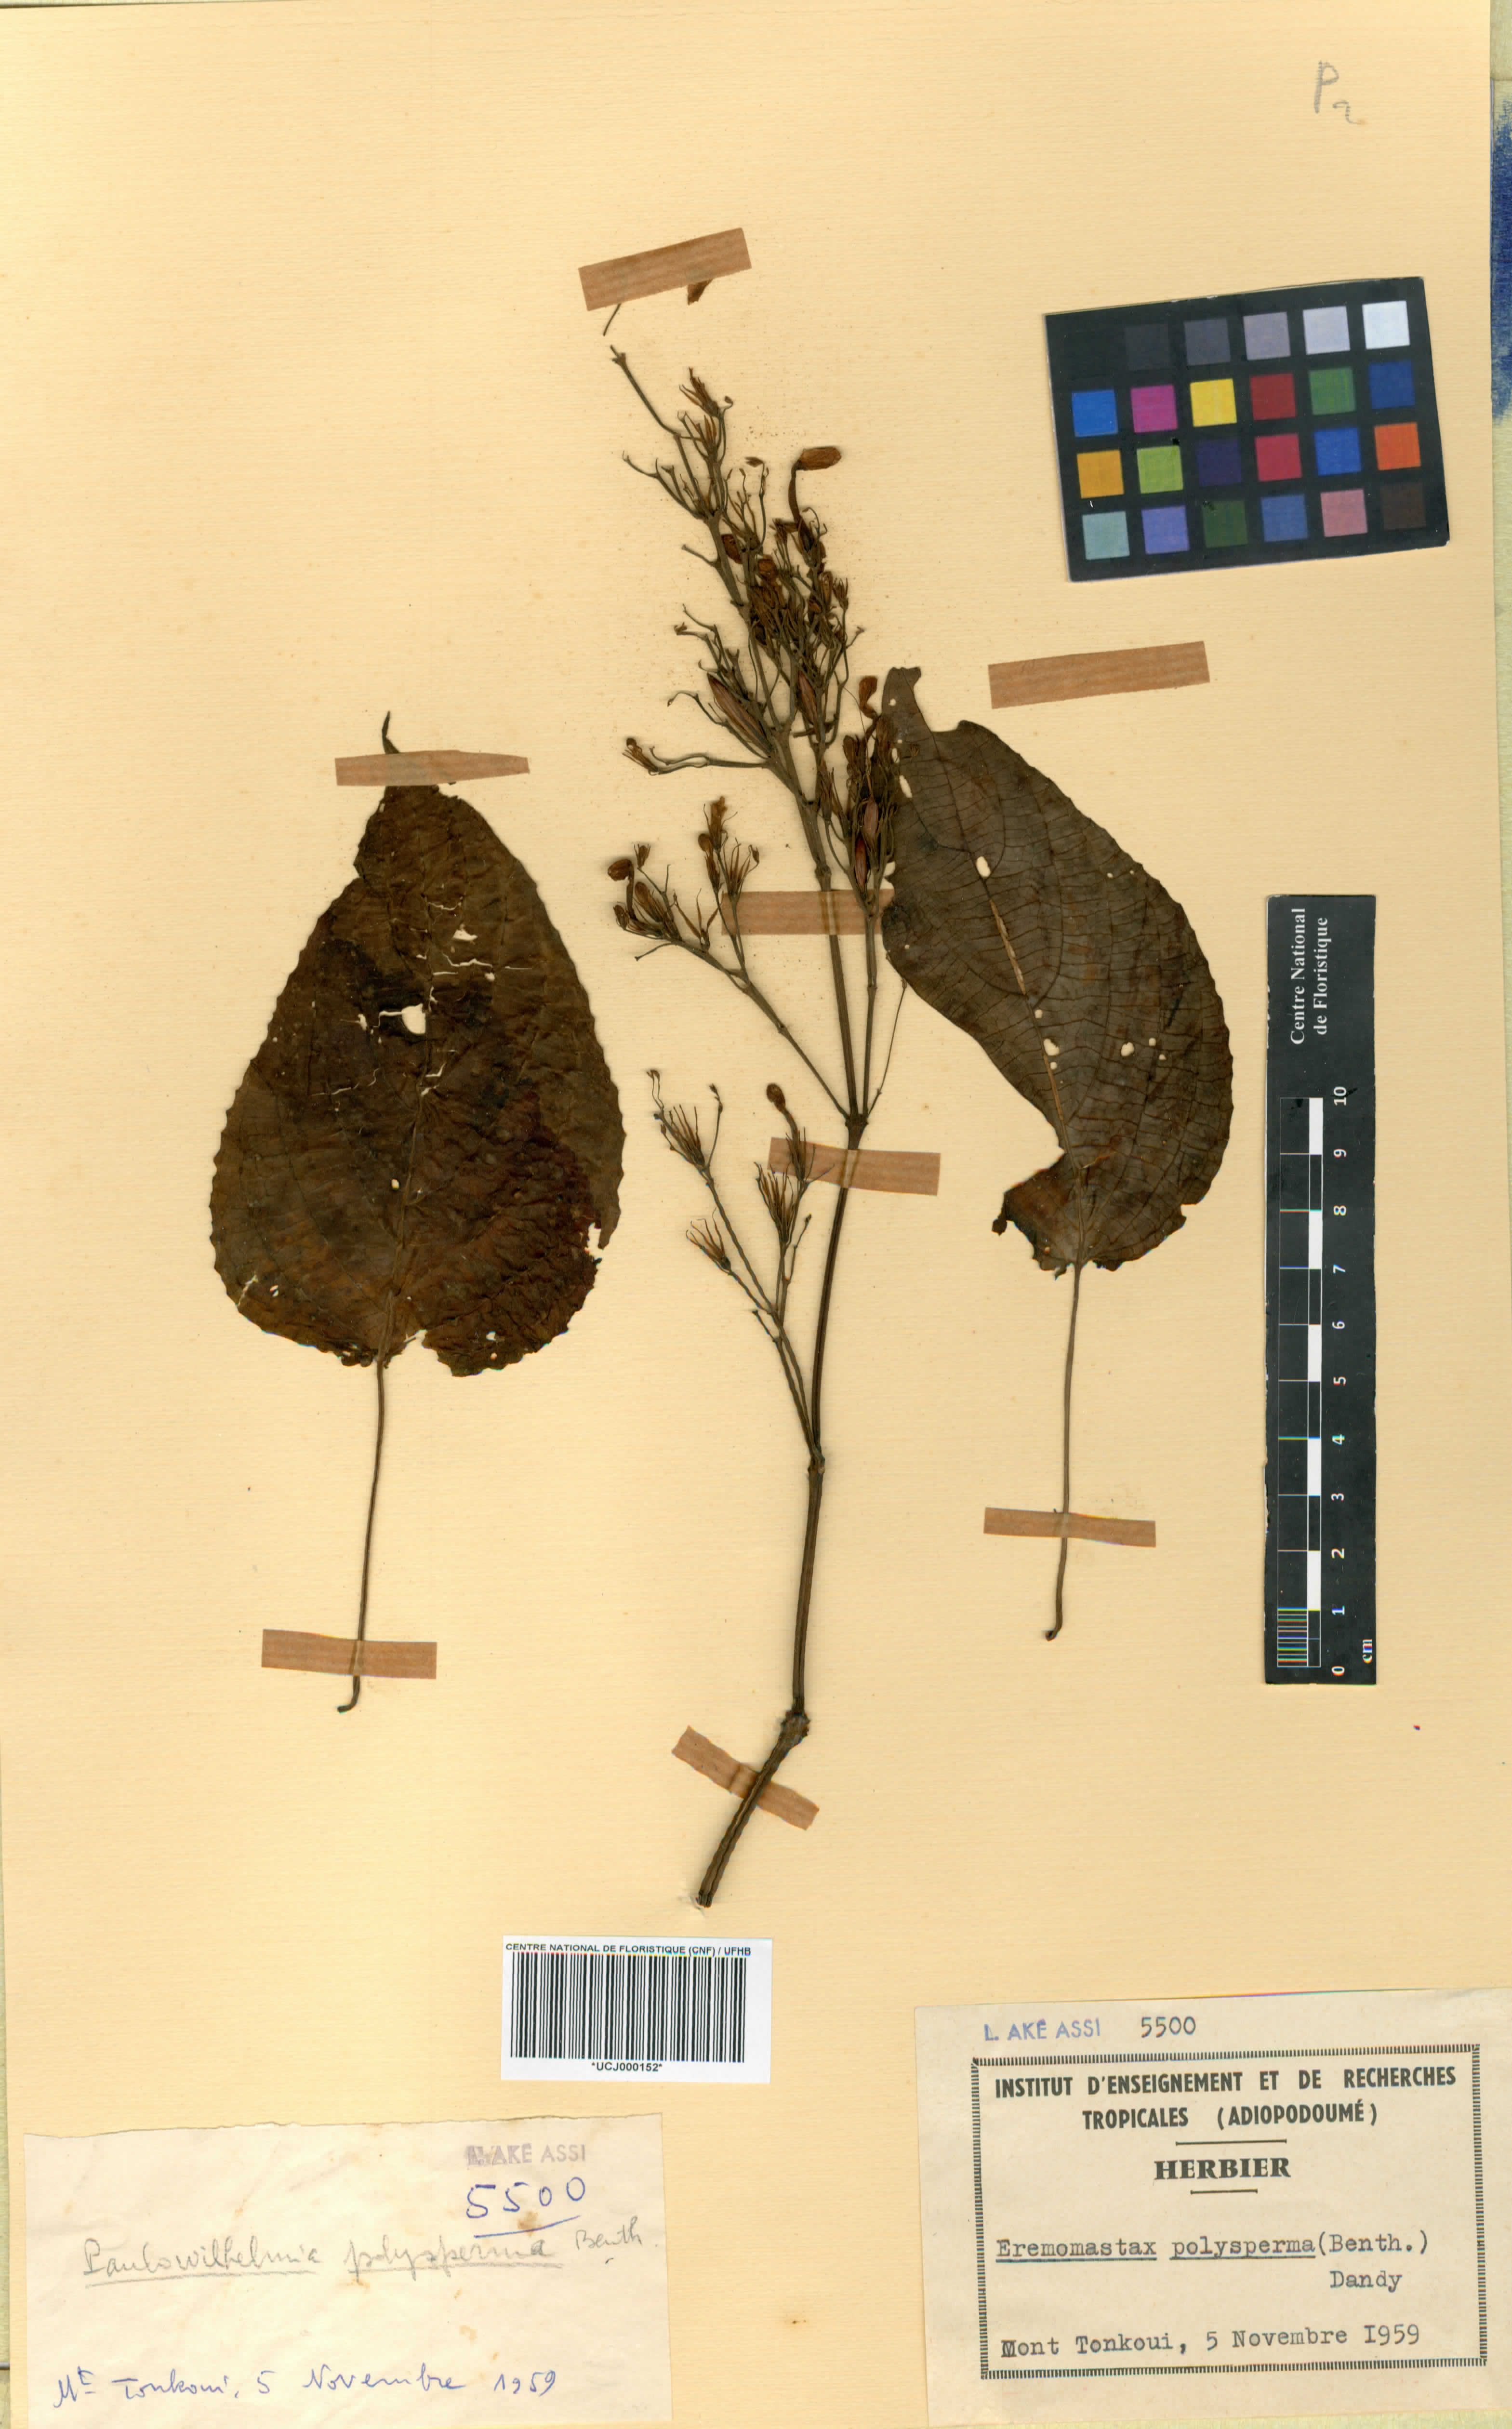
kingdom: Plantae
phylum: Tracheophyta
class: Magnoliopsida
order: Lamiales
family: Acanthaceae
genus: Eremomastax
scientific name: Eremomastax speciosa
